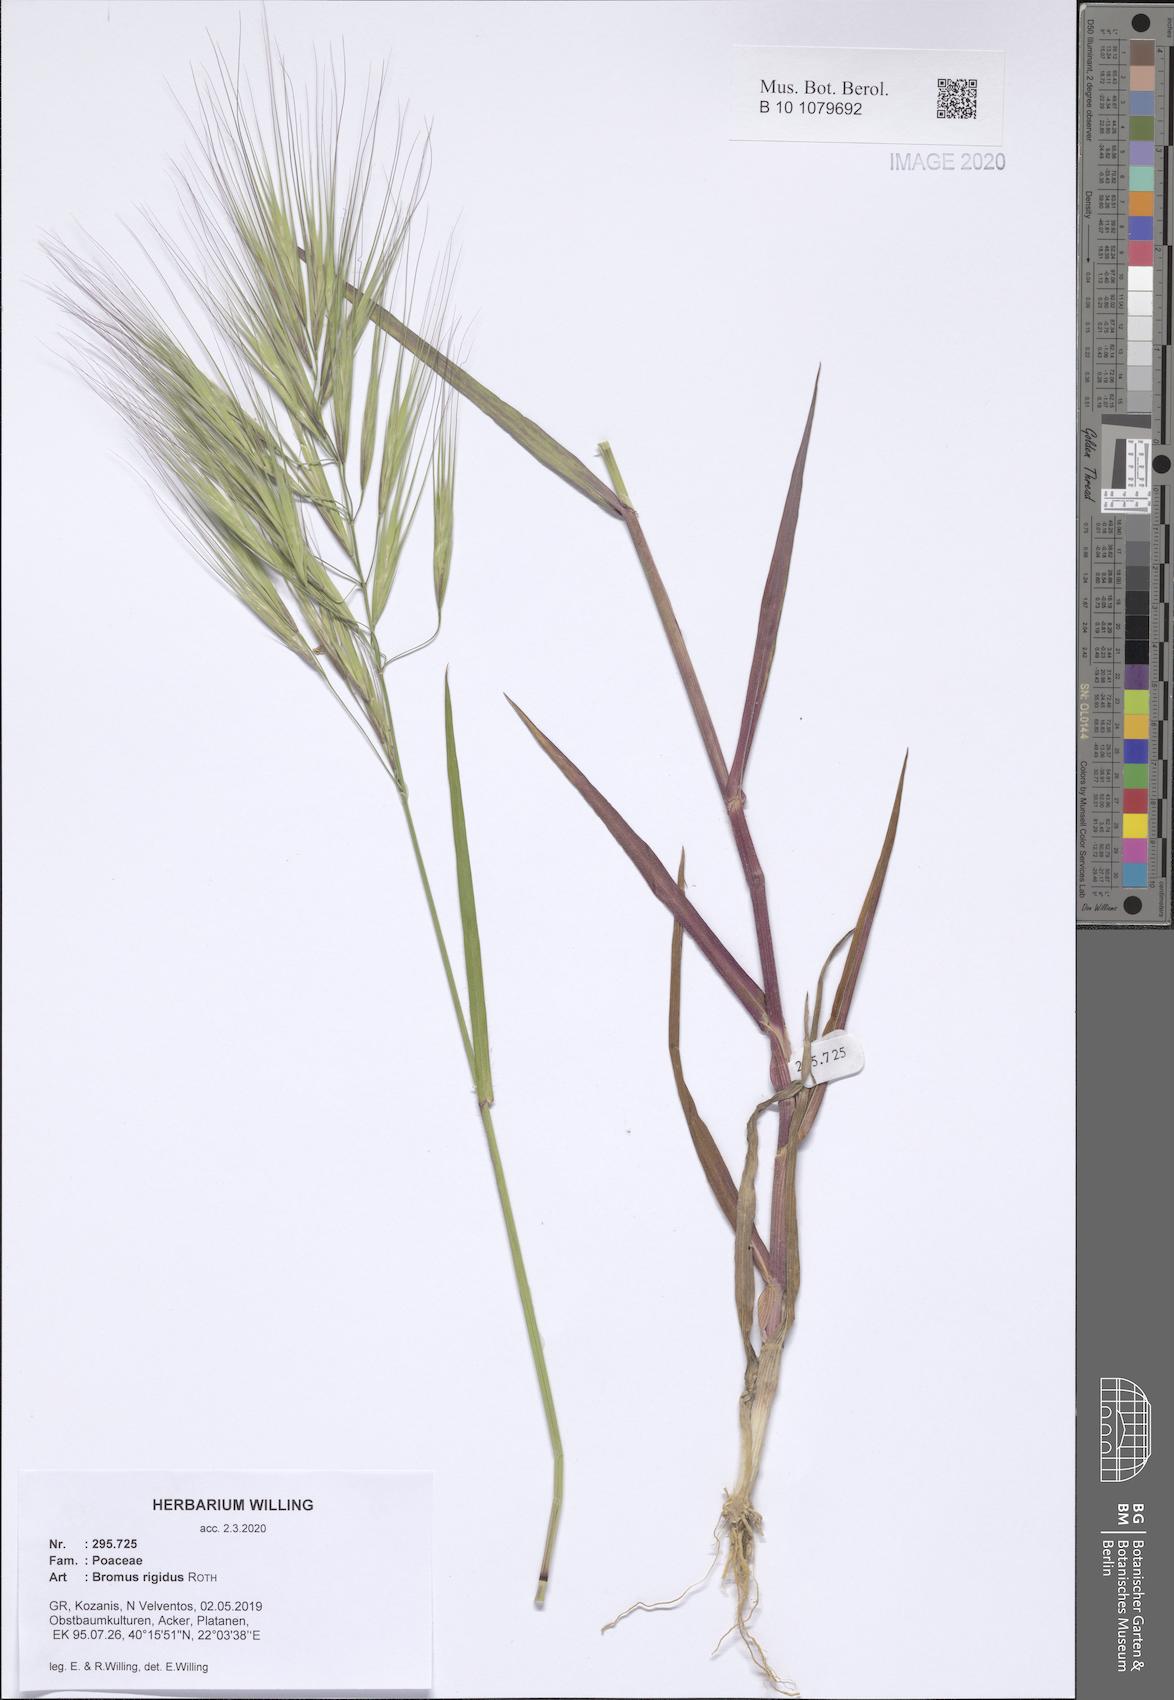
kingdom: Plantae
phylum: Tracheophyta
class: Liliopsida
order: Poales
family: Poaceae
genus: Bromus
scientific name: Bromus rigidus
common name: Ripgut brome
